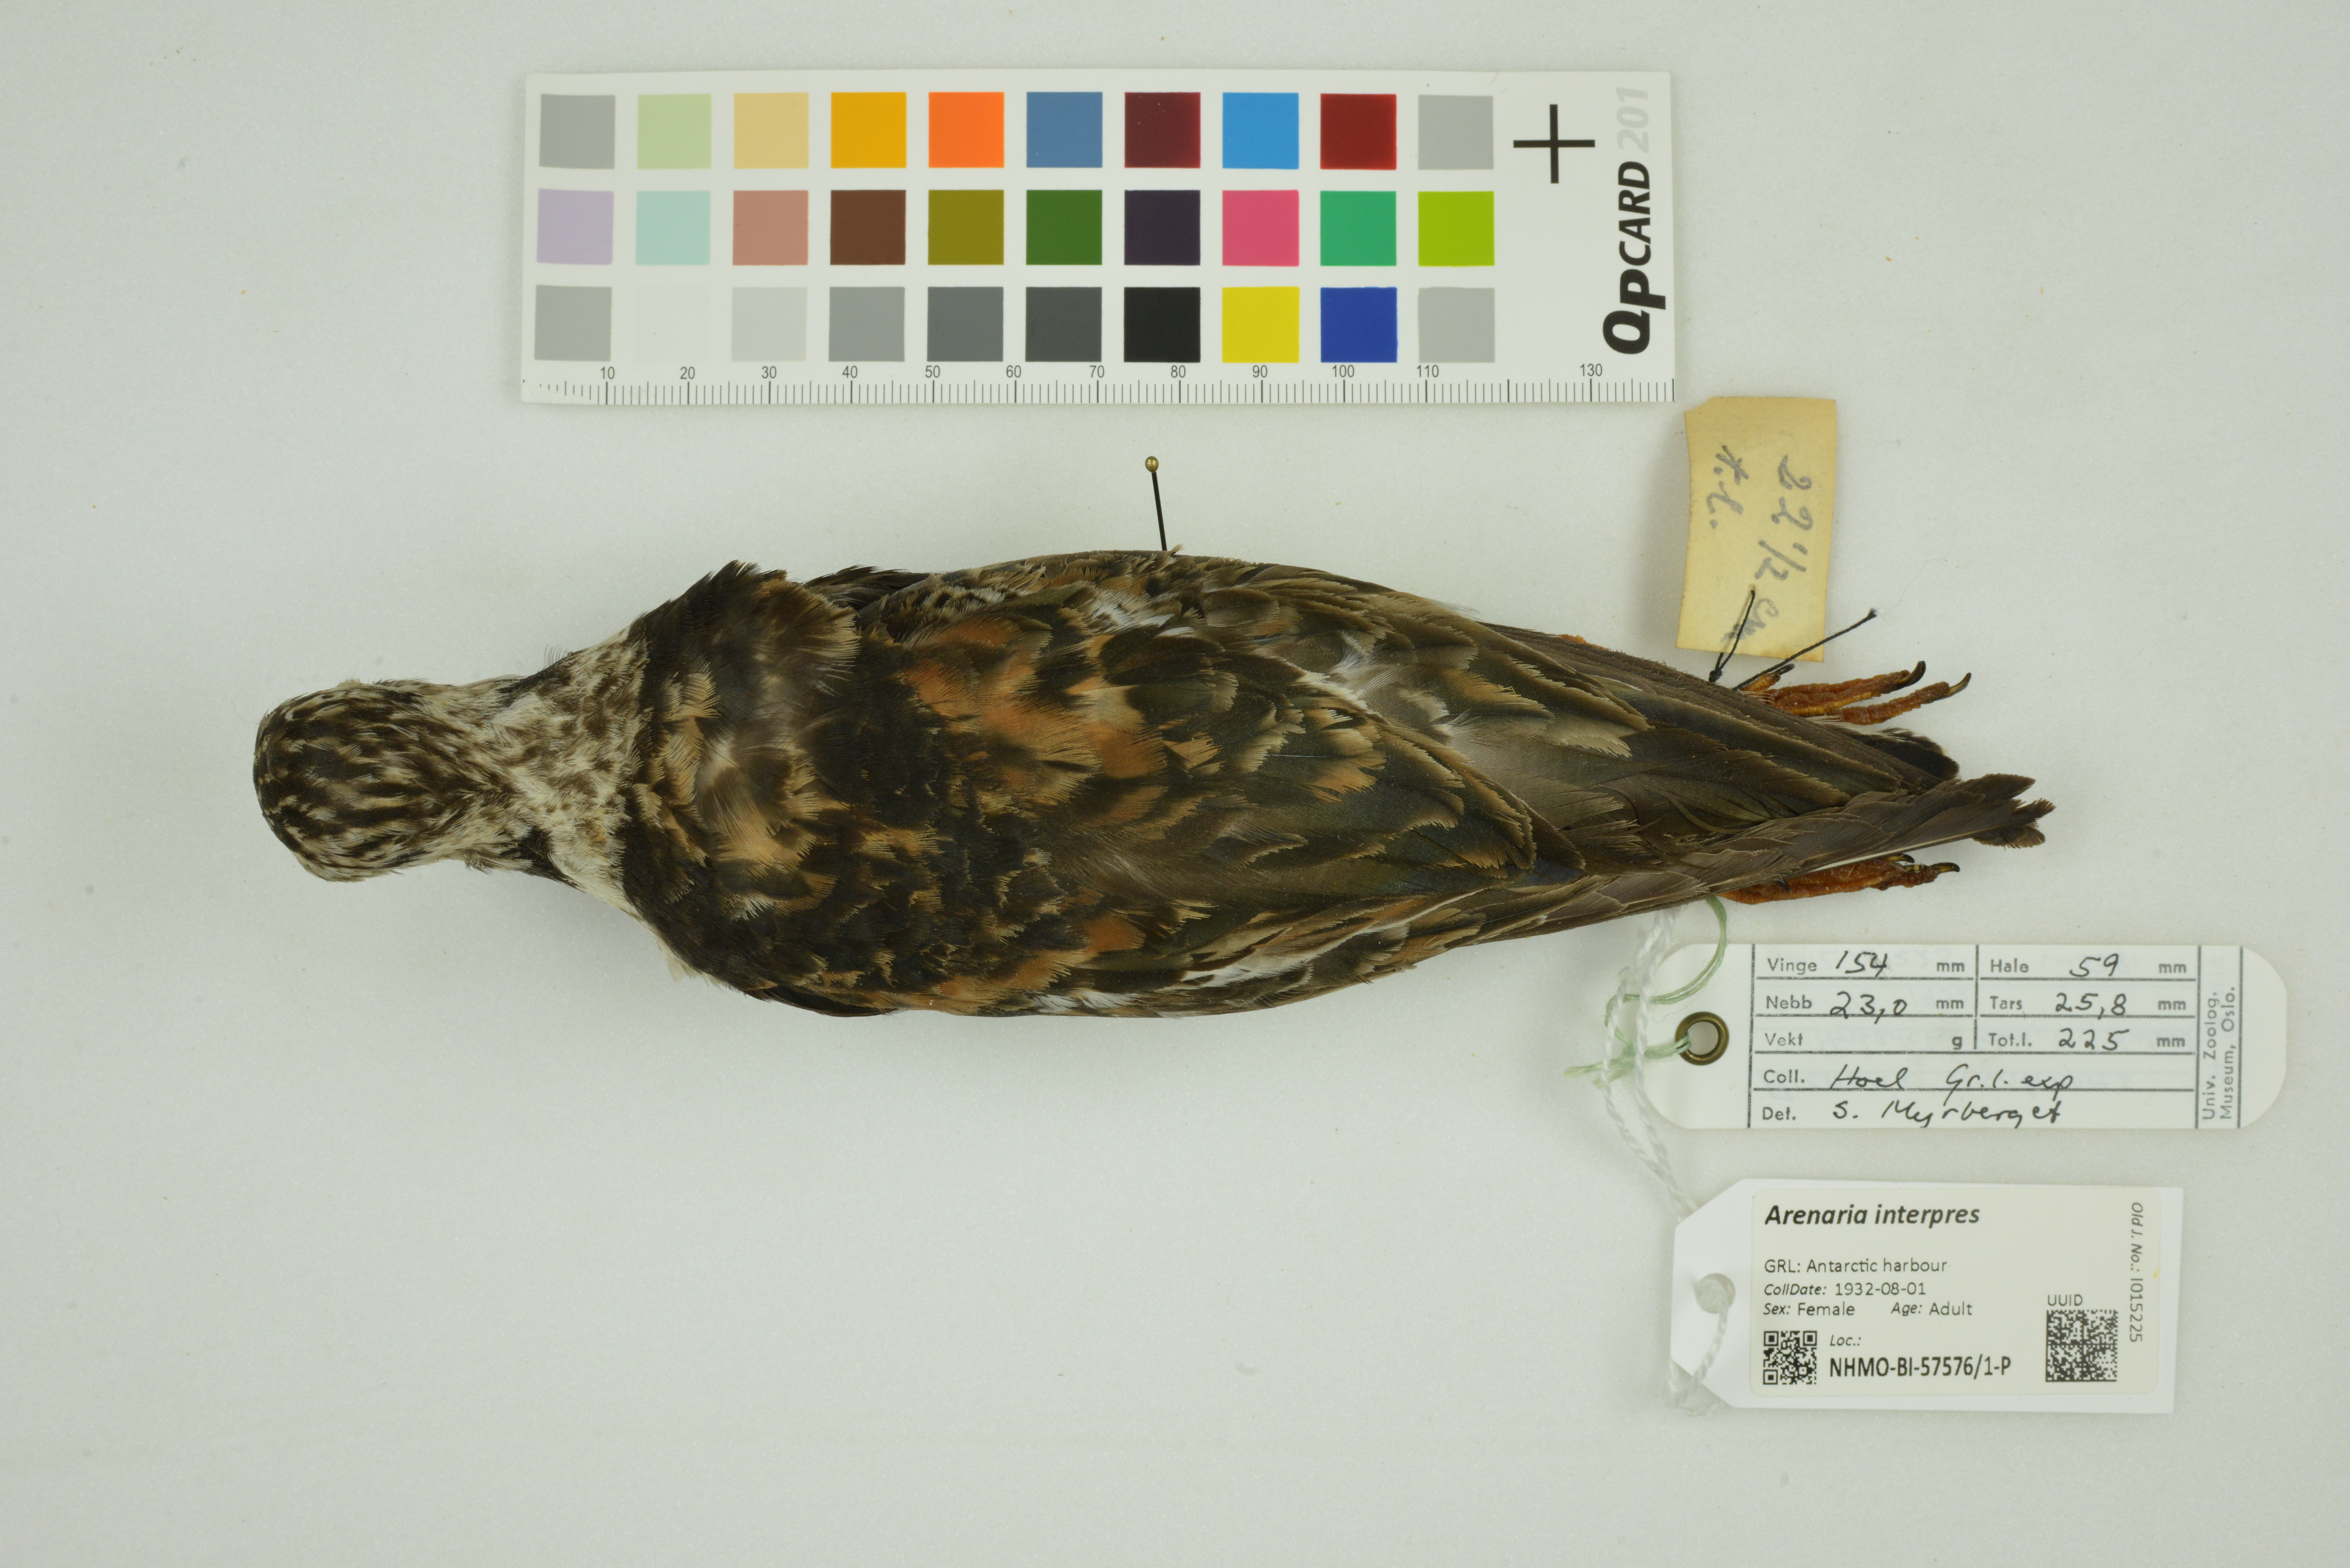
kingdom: Animalia
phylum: Chordata
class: Aves
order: Charadriiformes
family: Scolopacidae
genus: Arenaria
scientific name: Arenaria interpres
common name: Ruddy turnstone
